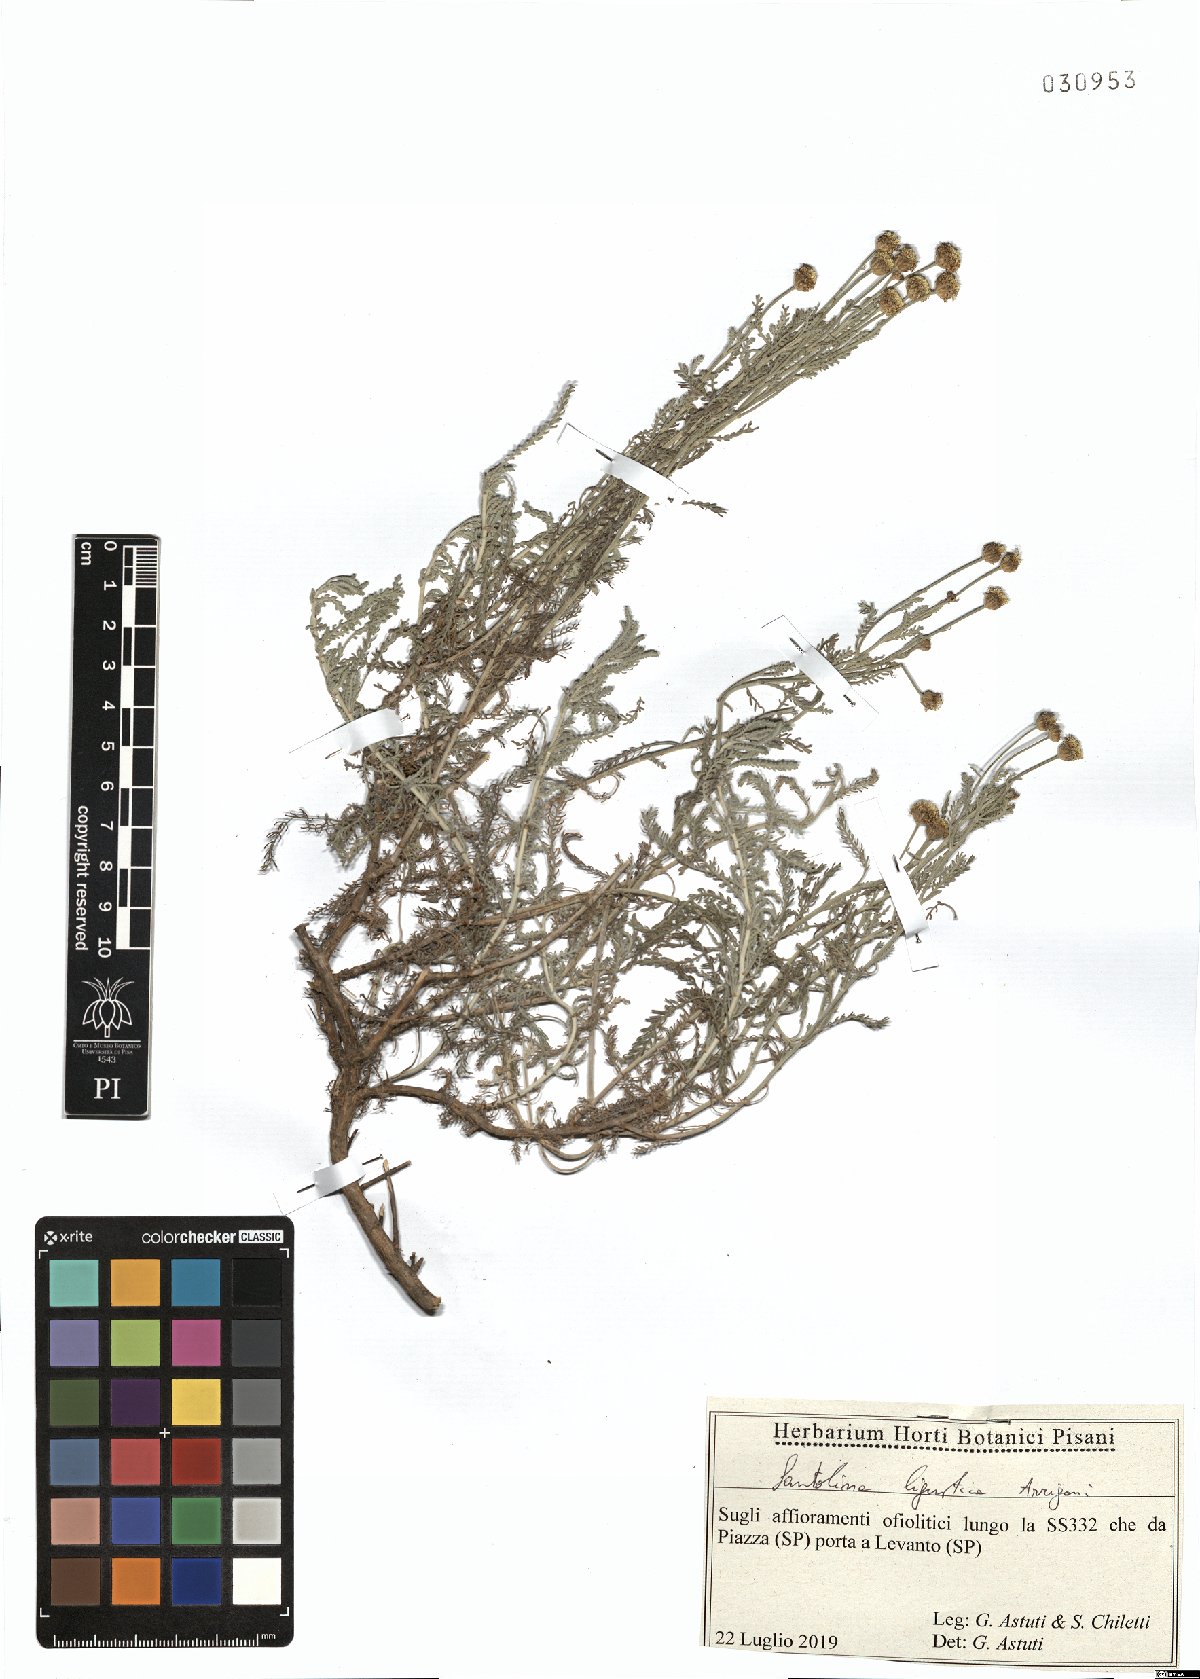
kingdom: Plantae
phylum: Tracheophyta
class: Magnoliopsida
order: Asterales
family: Asteraceae
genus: Santolina
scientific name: Santolina ligustica
